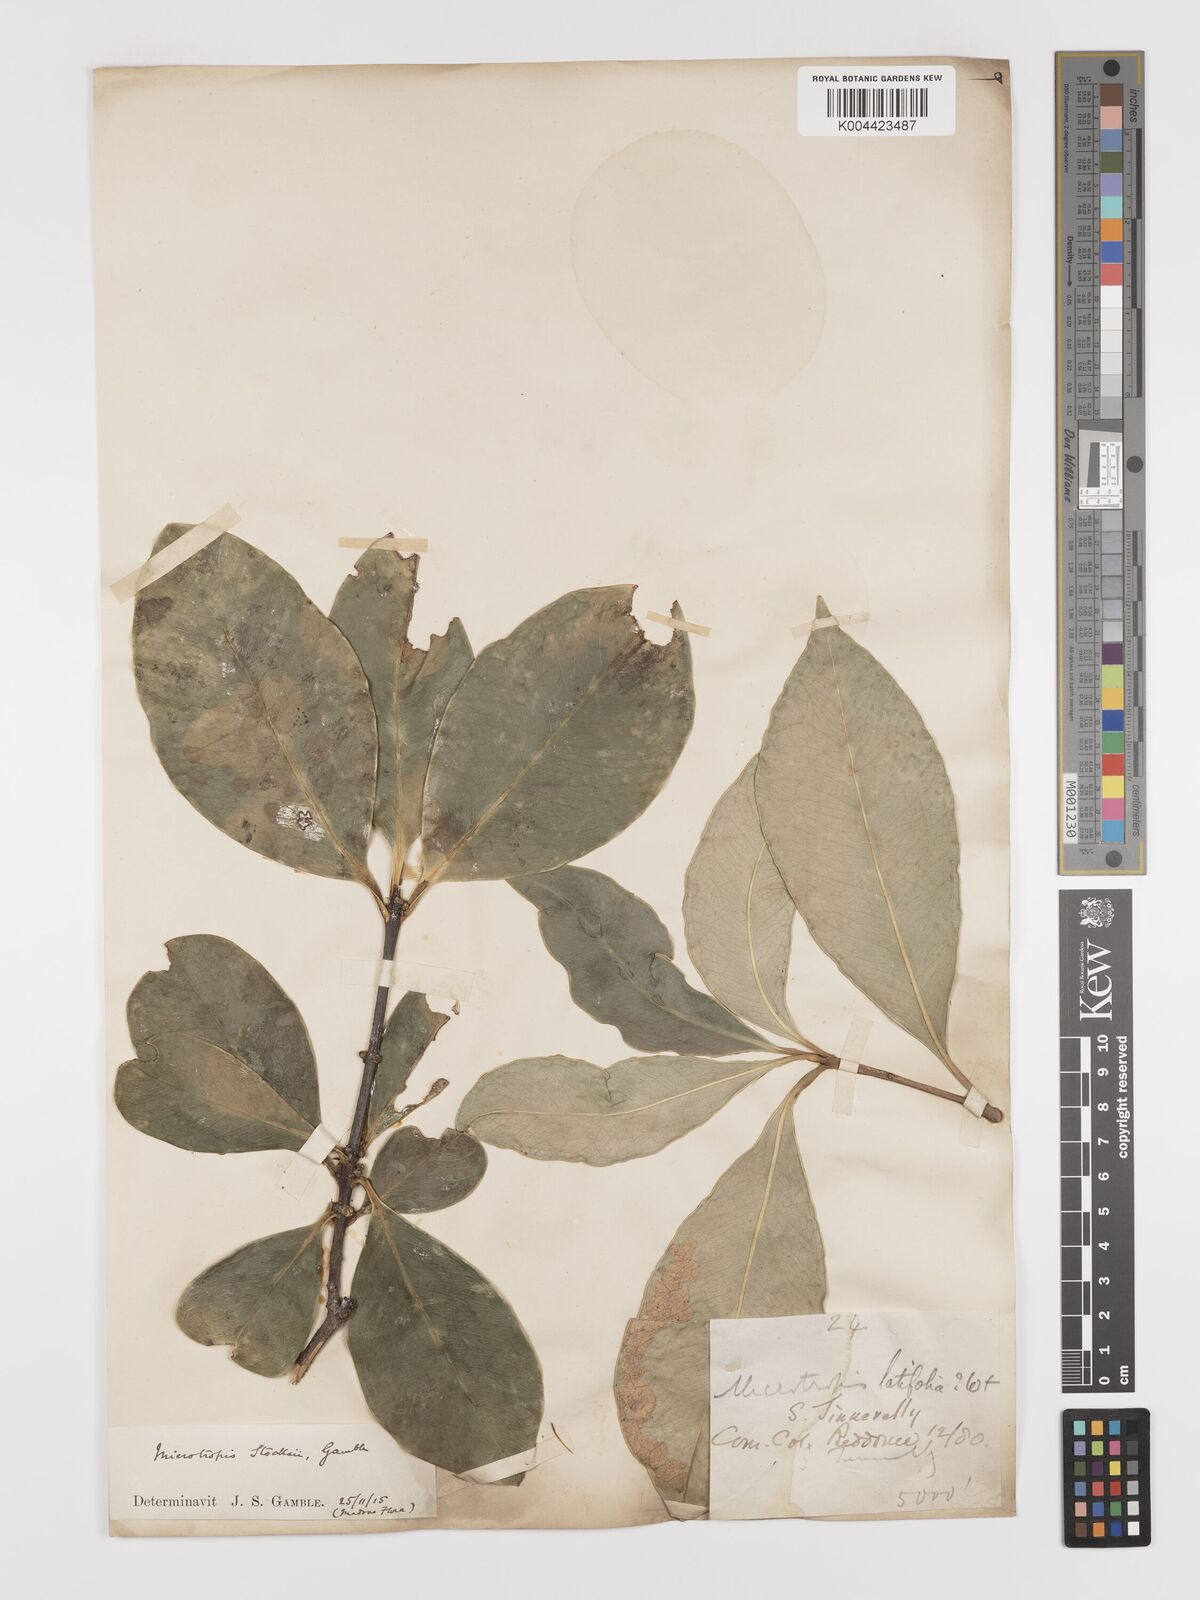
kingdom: Plantae
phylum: Tracheophyta
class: Magnoliopsida
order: Celastrales
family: Celastraceae
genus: Microtropis
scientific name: Microtropis stocksii
